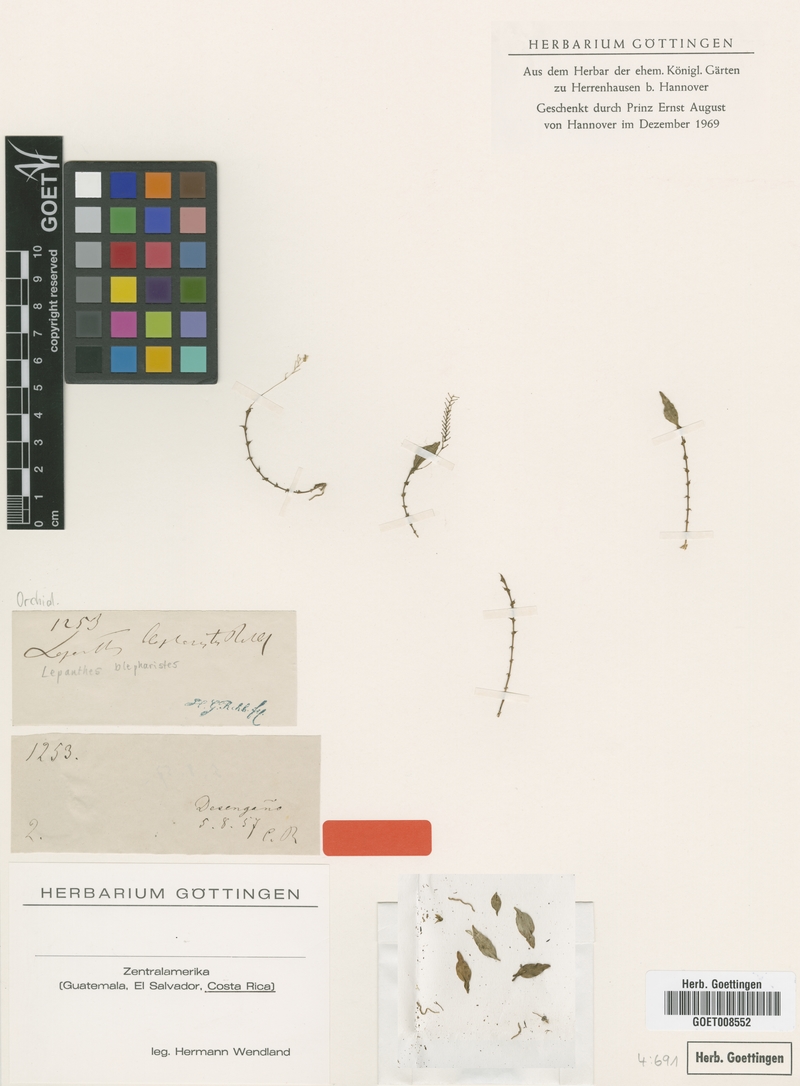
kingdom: Plantae
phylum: Tracheophyta
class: Liliopsida
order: Asparagales
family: Orchidaceae
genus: Lepanthes
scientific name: Lepanthes blepharistes
